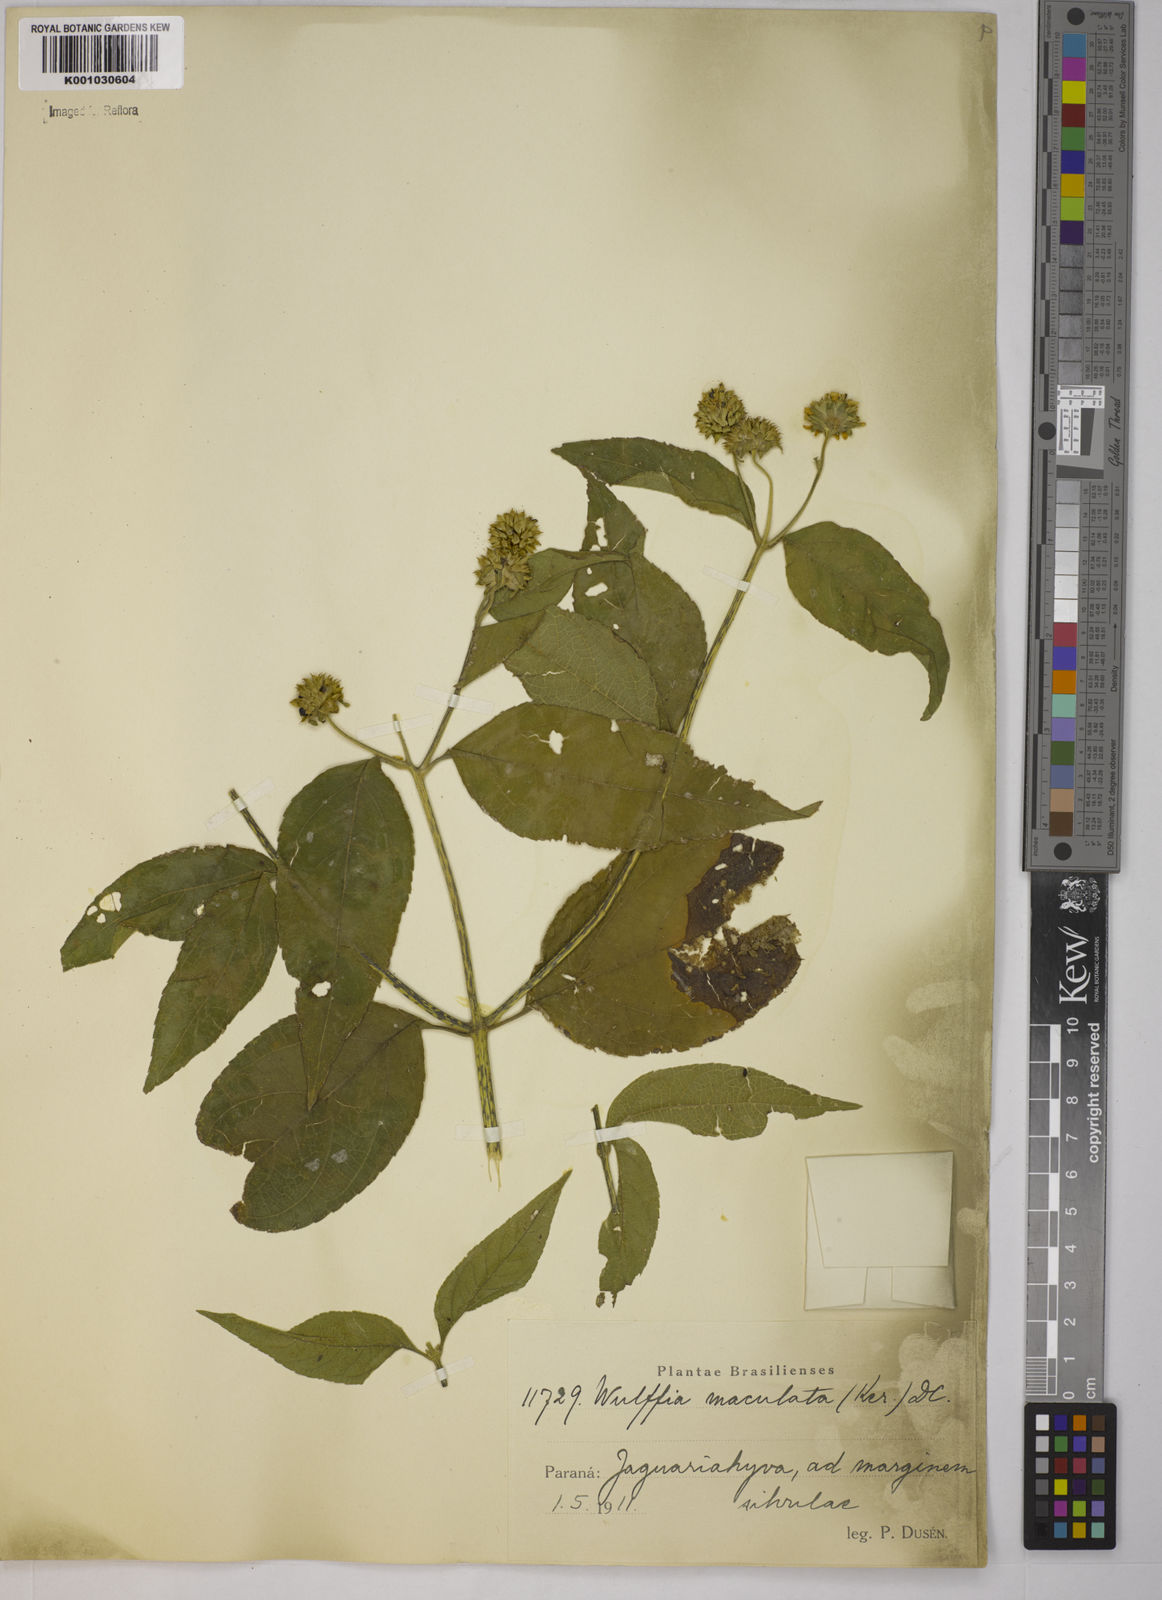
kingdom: Plantae
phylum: Tracheophyta
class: Magnoliopsida
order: Asterales
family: Asteraceae
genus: Tilesia
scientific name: Tilesia baccata
